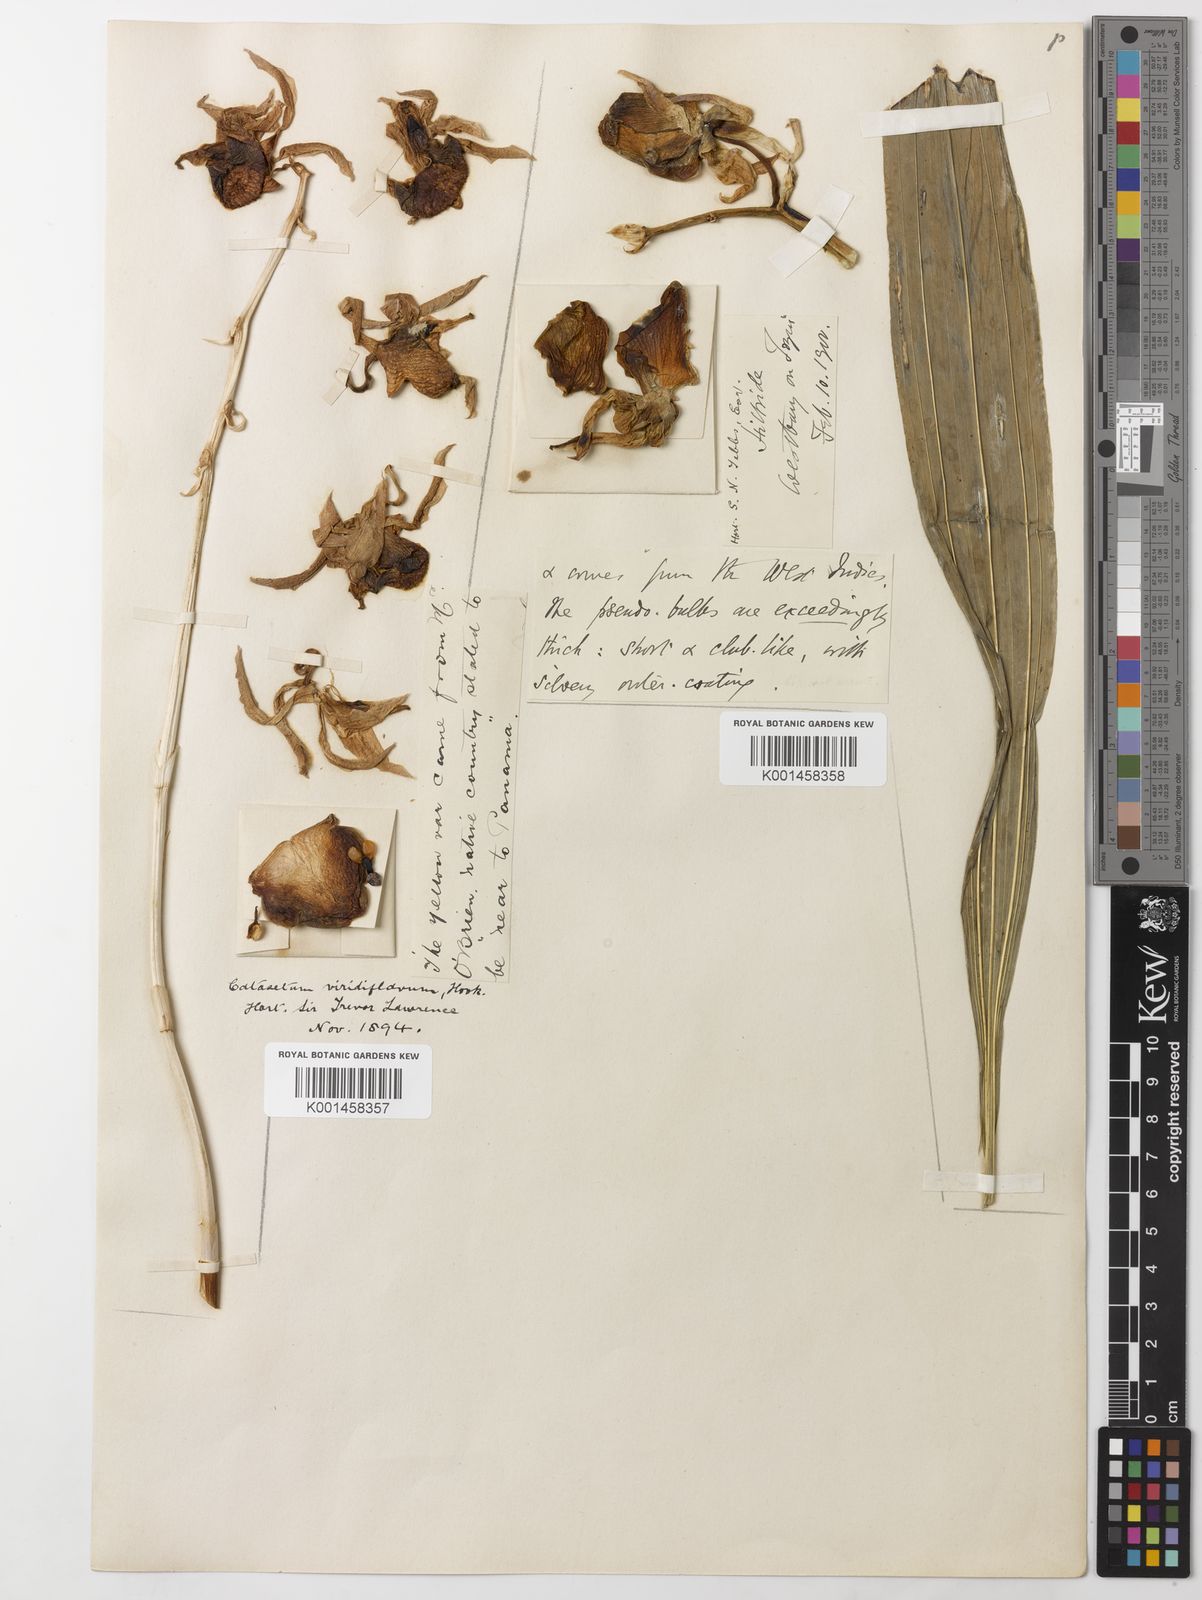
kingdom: Plantae
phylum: Tracheophyta
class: Liliopsida
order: Asparagales
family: Orchidaceae
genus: Catasetum
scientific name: Catasetum viridiflavum
